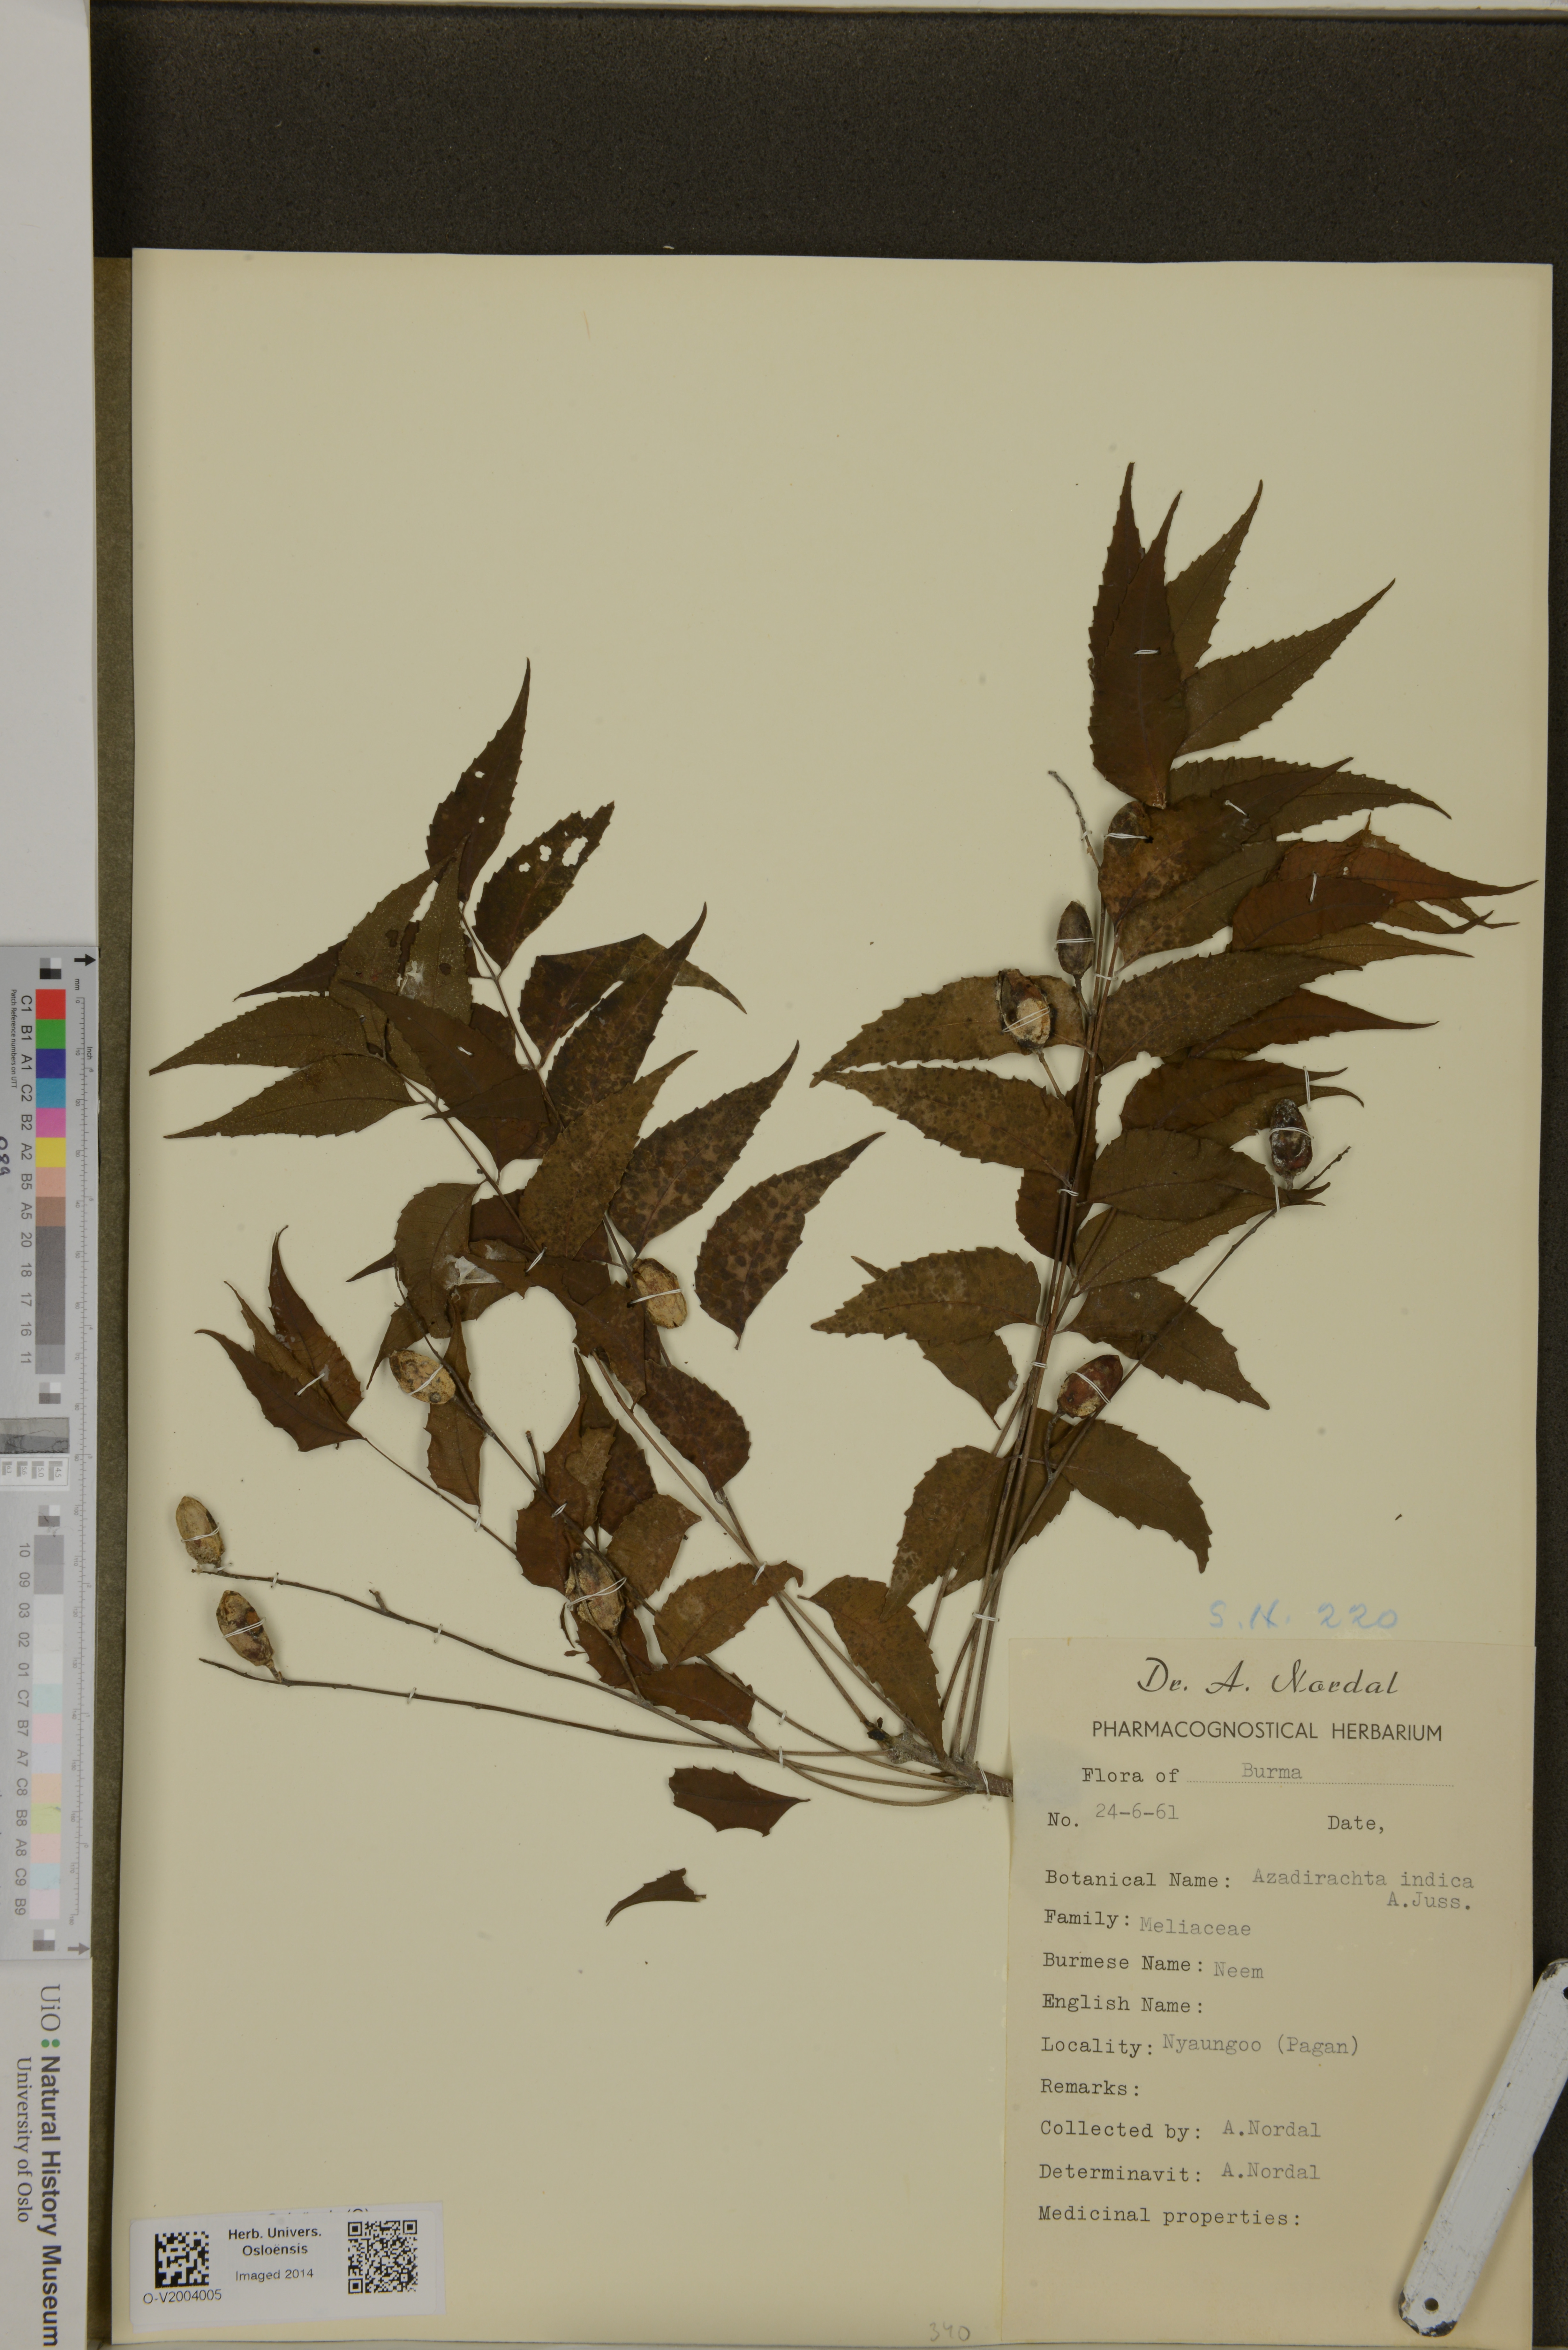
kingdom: Plantae
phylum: Tracheophyta
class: Magnoliopsida
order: Sapindales
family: Meliaceae
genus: Azadirachta
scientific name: Azadirachta indica
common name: Neem
